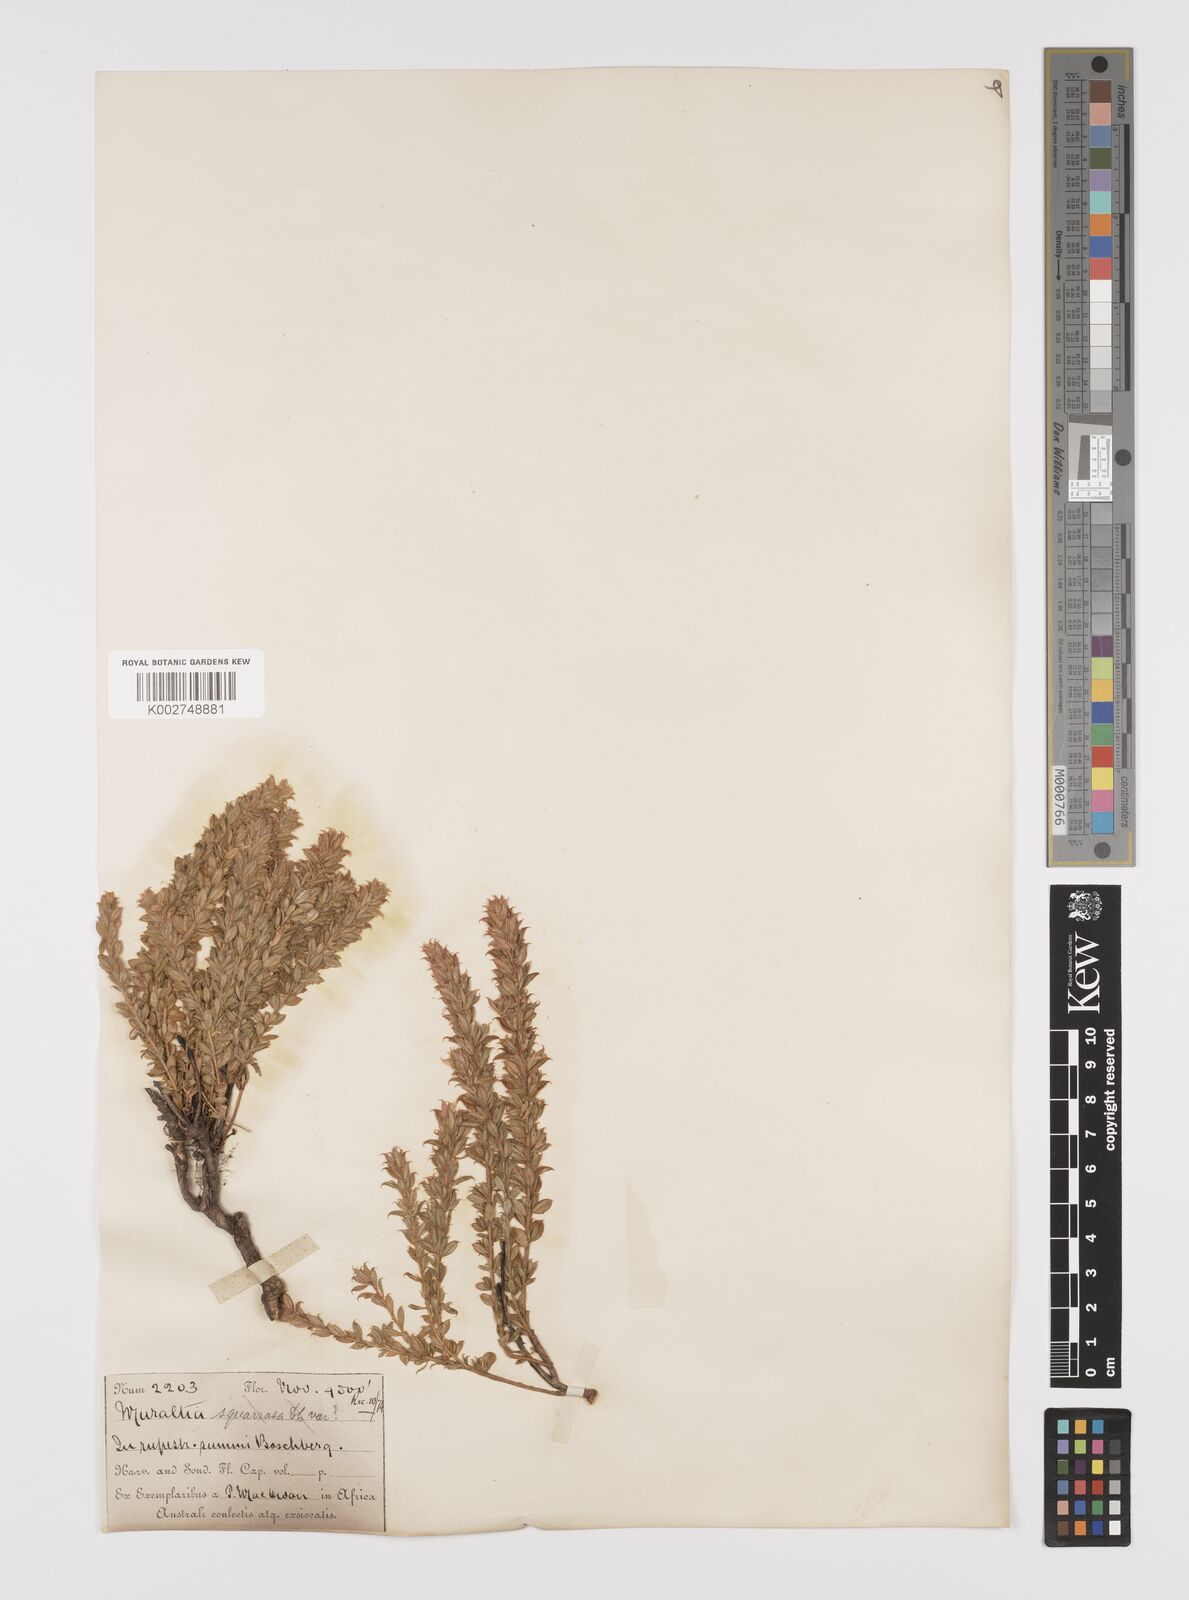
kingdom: Plantae
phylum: Tracheophyta
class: Magnoliopsida
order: Fabales
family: Polygalaceae
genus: Muraltia
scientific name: Muraltia saxicola
